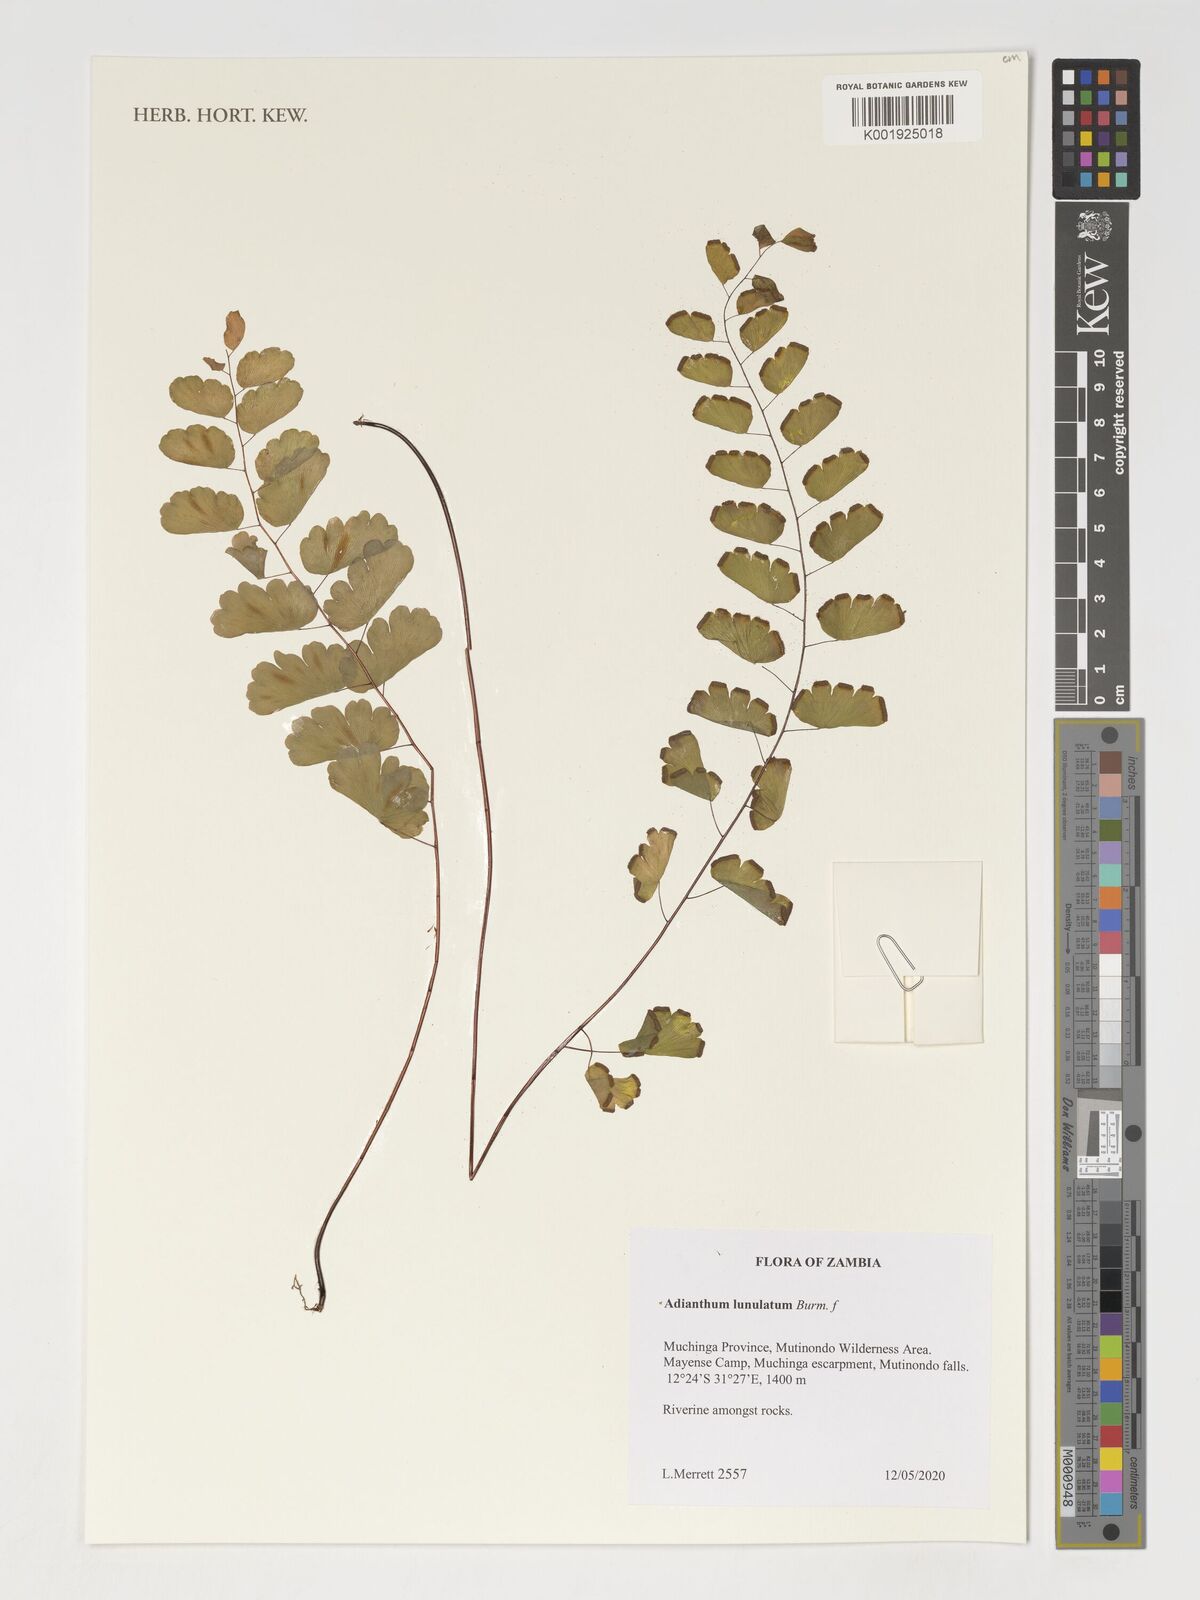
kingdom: Plantae
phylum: Tracheophyta
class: Polypodiopsida
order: Polypodiales
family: Pteridaceae
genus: Adianthum
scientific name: Adianthum
